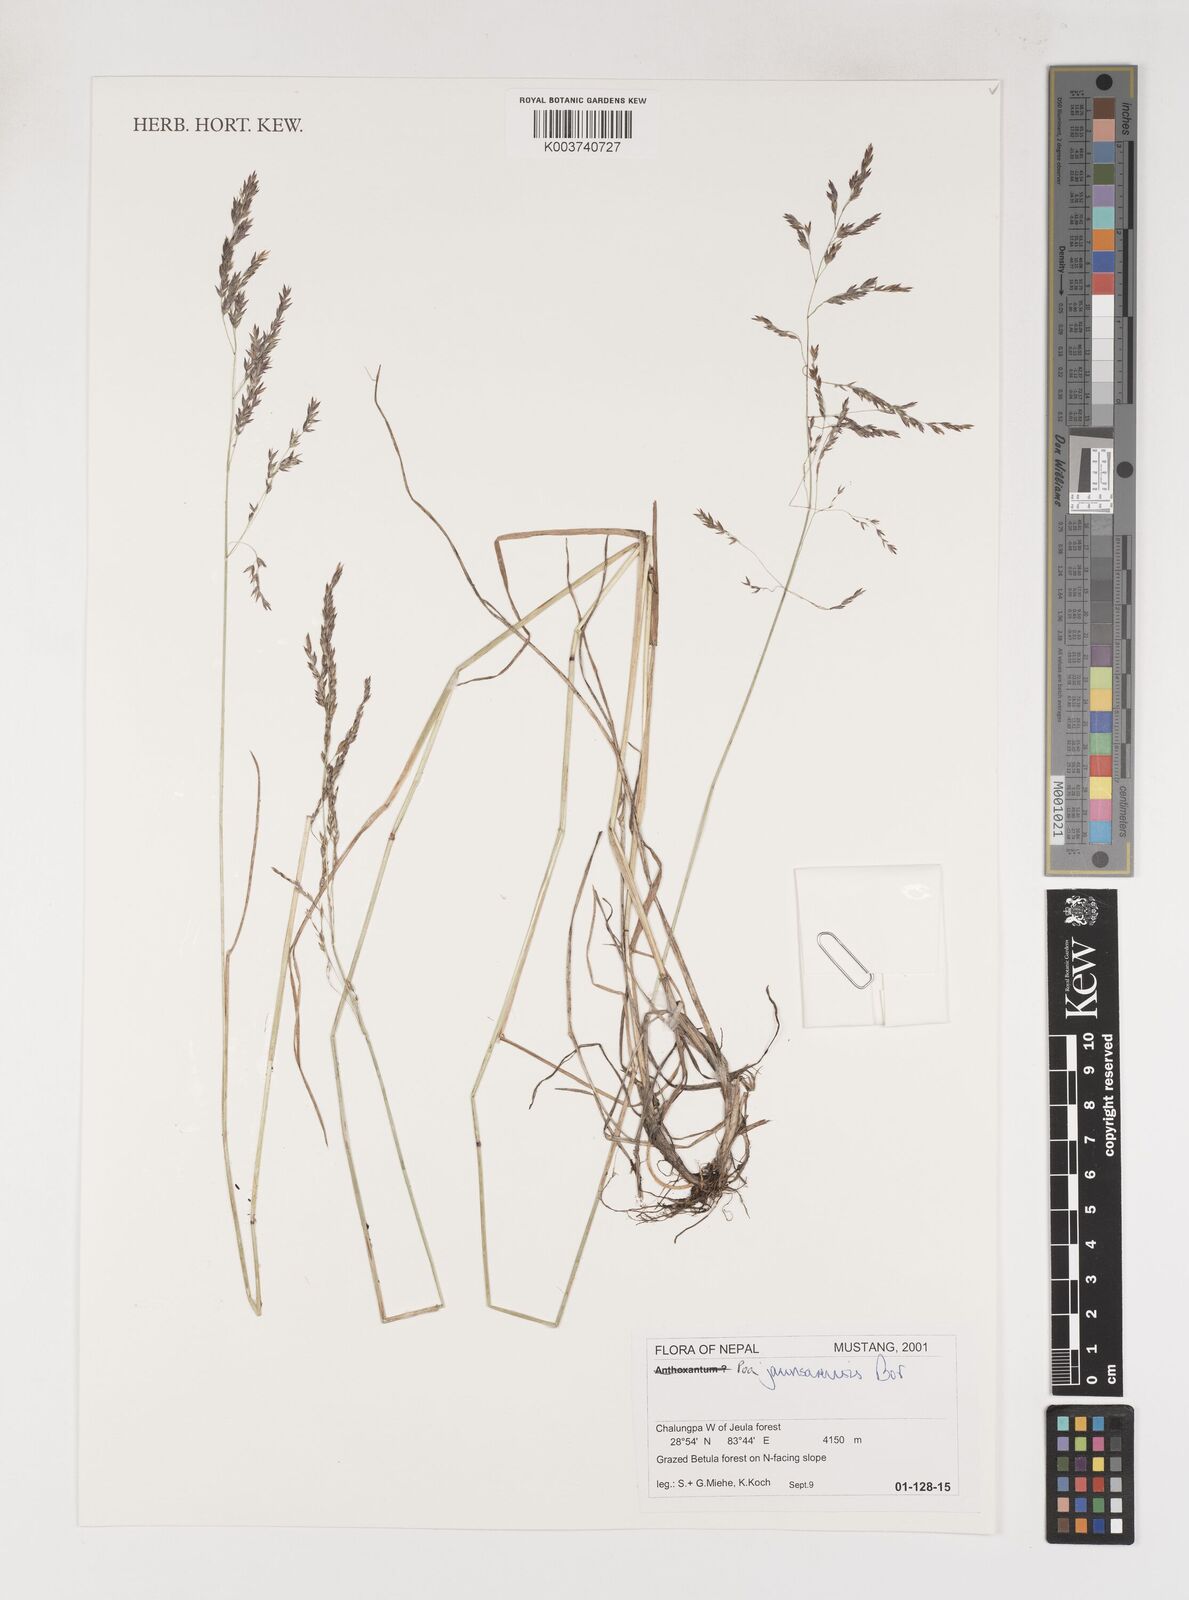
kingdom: Plantae
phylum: Tracheophyta
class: Liliopsida
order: Poales
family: Poaceae
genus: Poa
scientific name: Poa jaunsarensis
